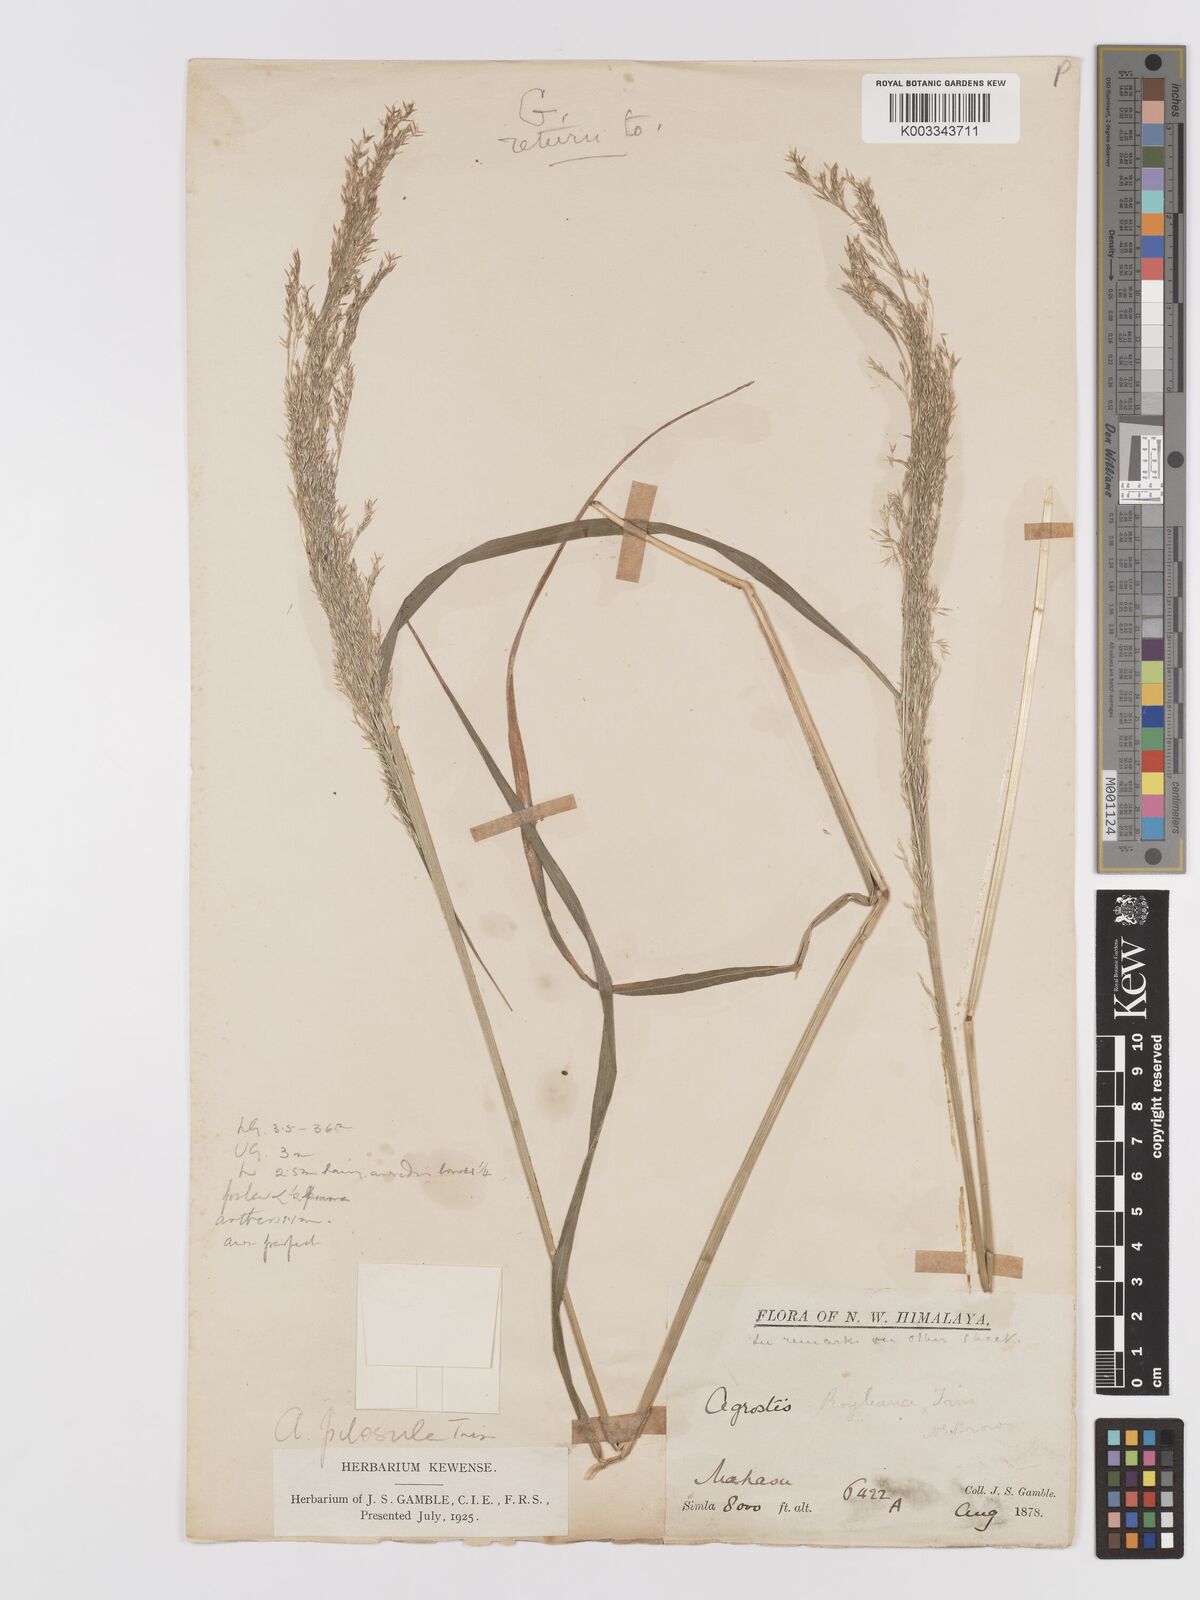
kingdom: Plantae
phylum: Tracheophyta
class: Liliopsida
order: Poales
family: Poaceae
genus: Agrostis
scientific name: Agrostis pilosula
